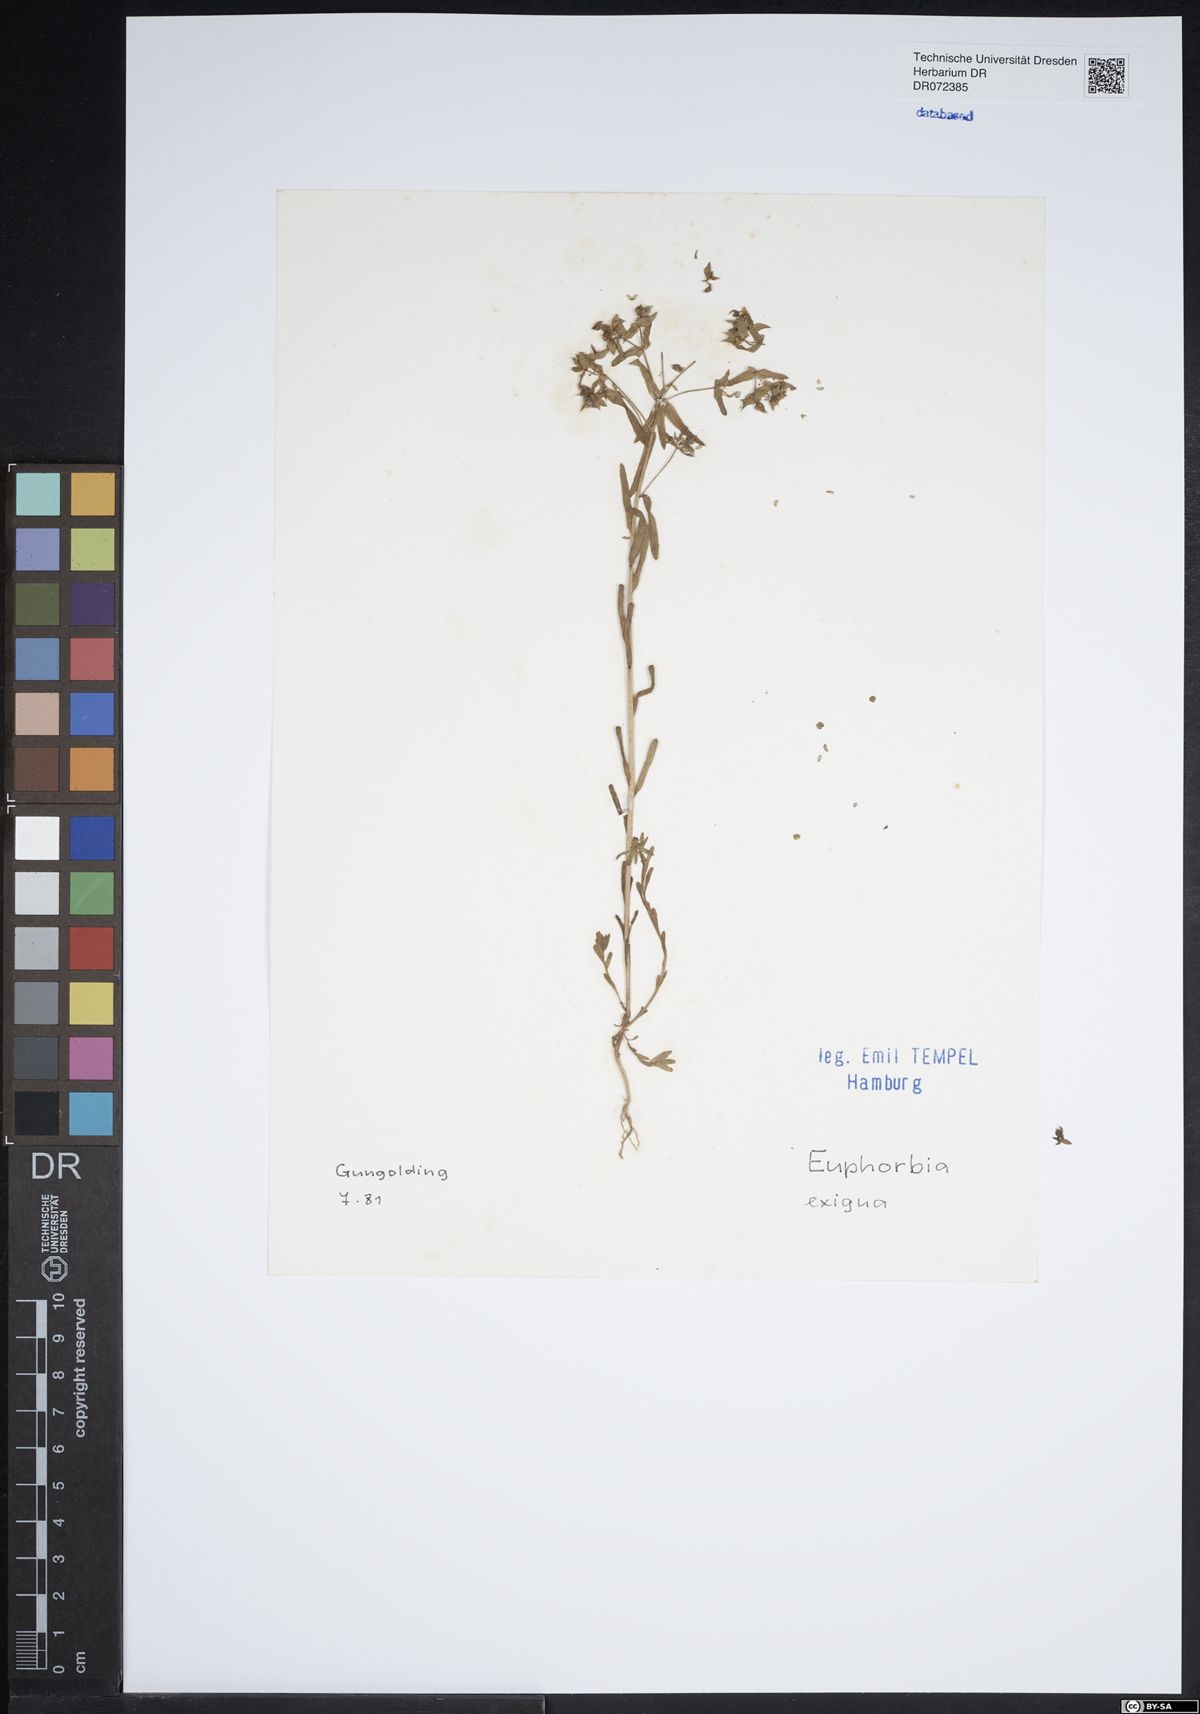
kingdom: Plantae
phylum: Tracheophyta
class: Magnoliopsida
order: Malpighiales
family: Euphorbiaceae
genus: Euphorbia
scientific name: Euphorbia exigua
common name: Dwarf spurge
